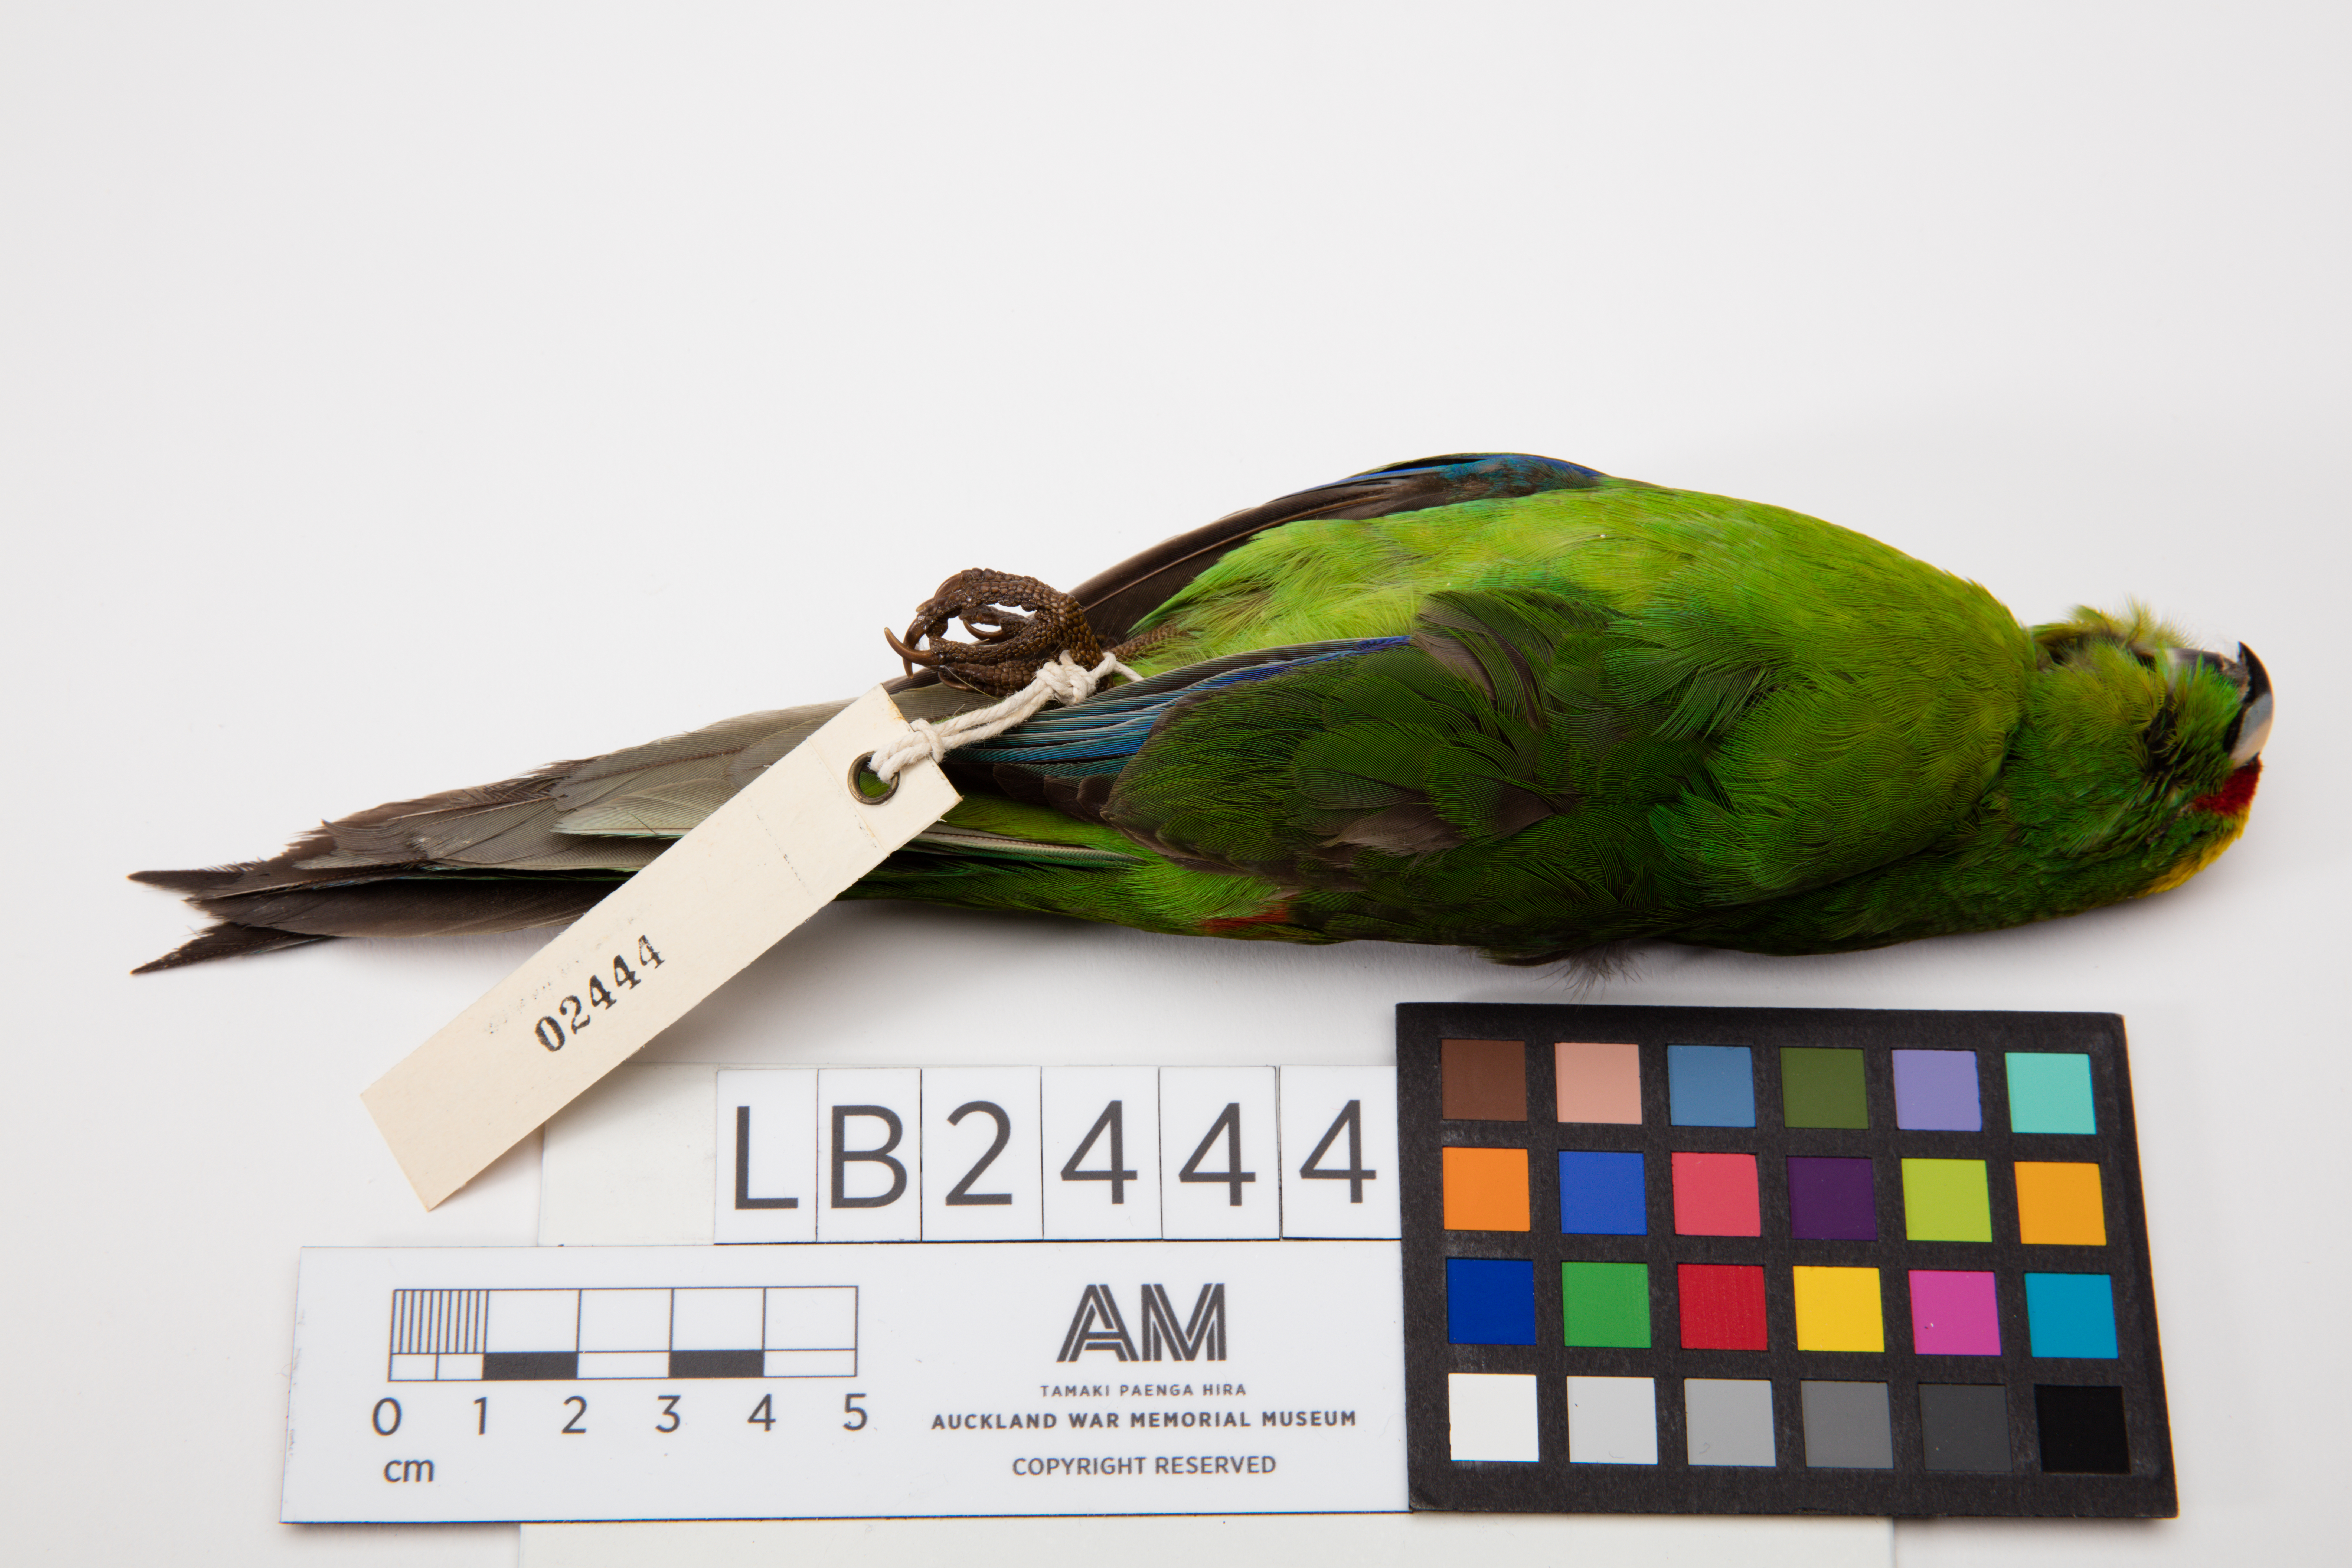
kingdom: Animalia
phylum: Chordata
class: Aves
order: Psittaciformes
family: Psittacidae
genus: Cyanoramphus
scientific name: Cyanoramphus auriceps
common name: Yellow-crowned parakeet
